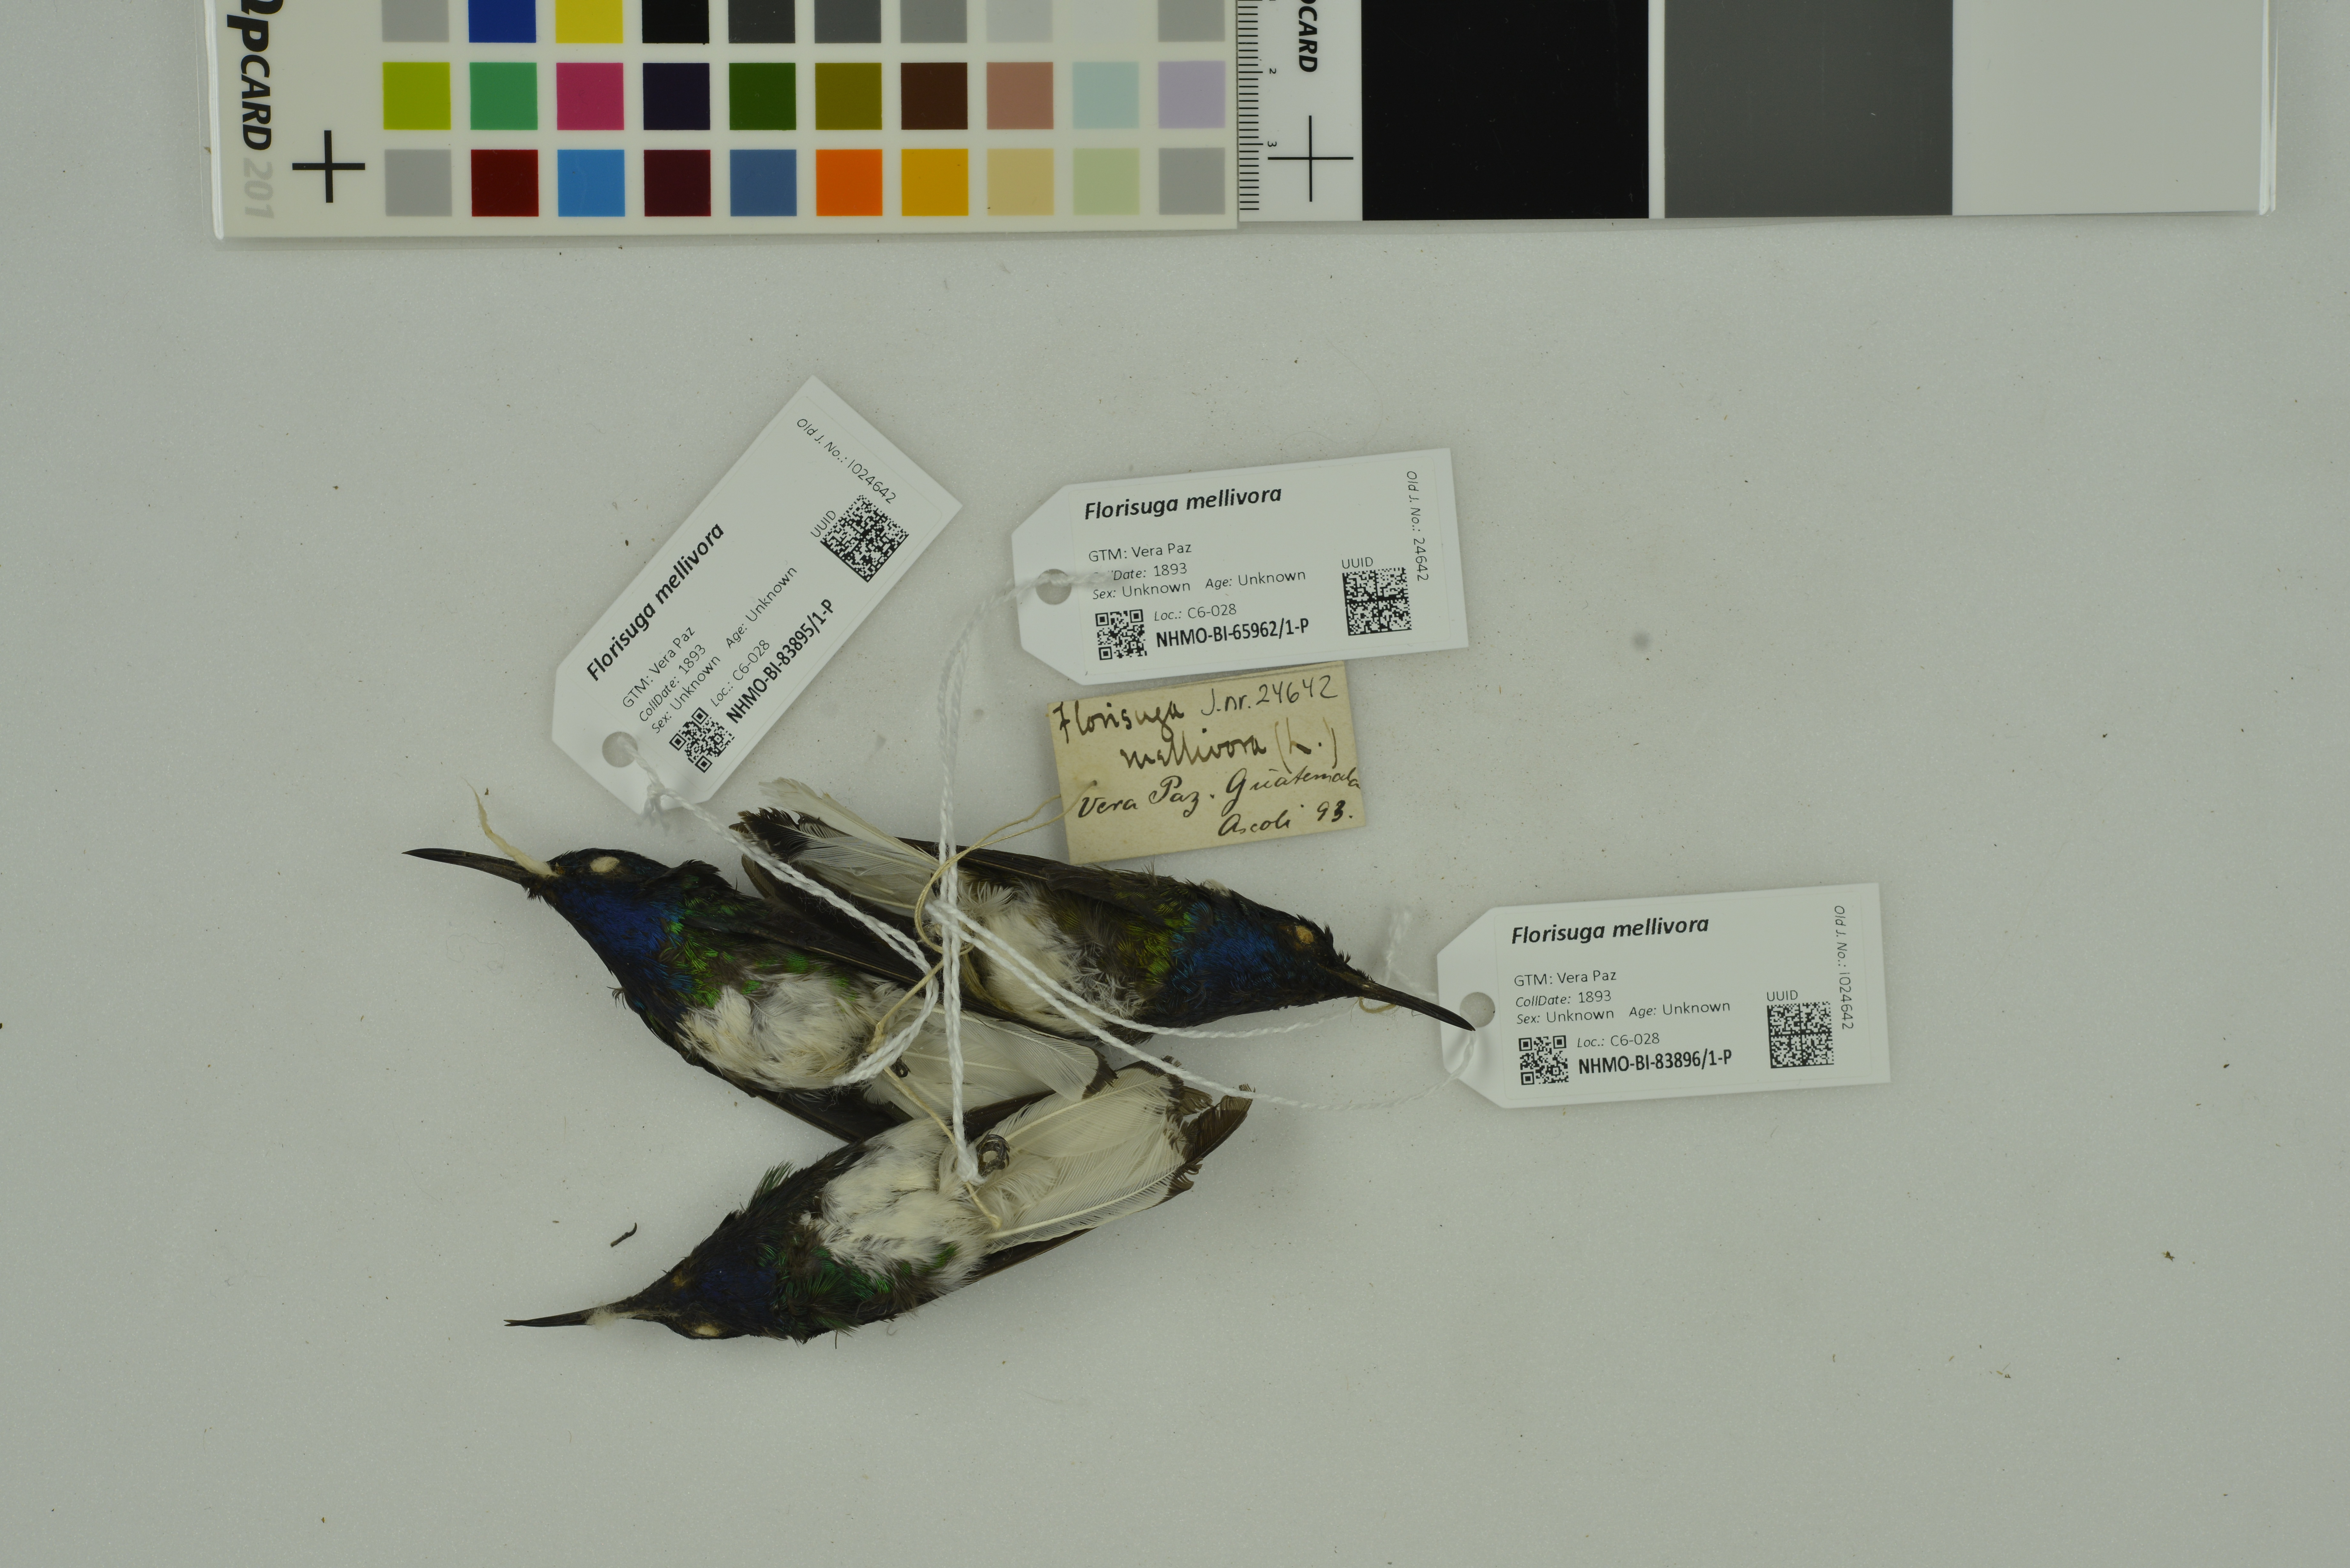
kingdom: Animalia
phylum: Chordata
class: Aves
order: Apodiformes
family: Trochilidae
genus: Florisuga
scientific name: Florisuga mellivora
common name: White-necked jacobin
